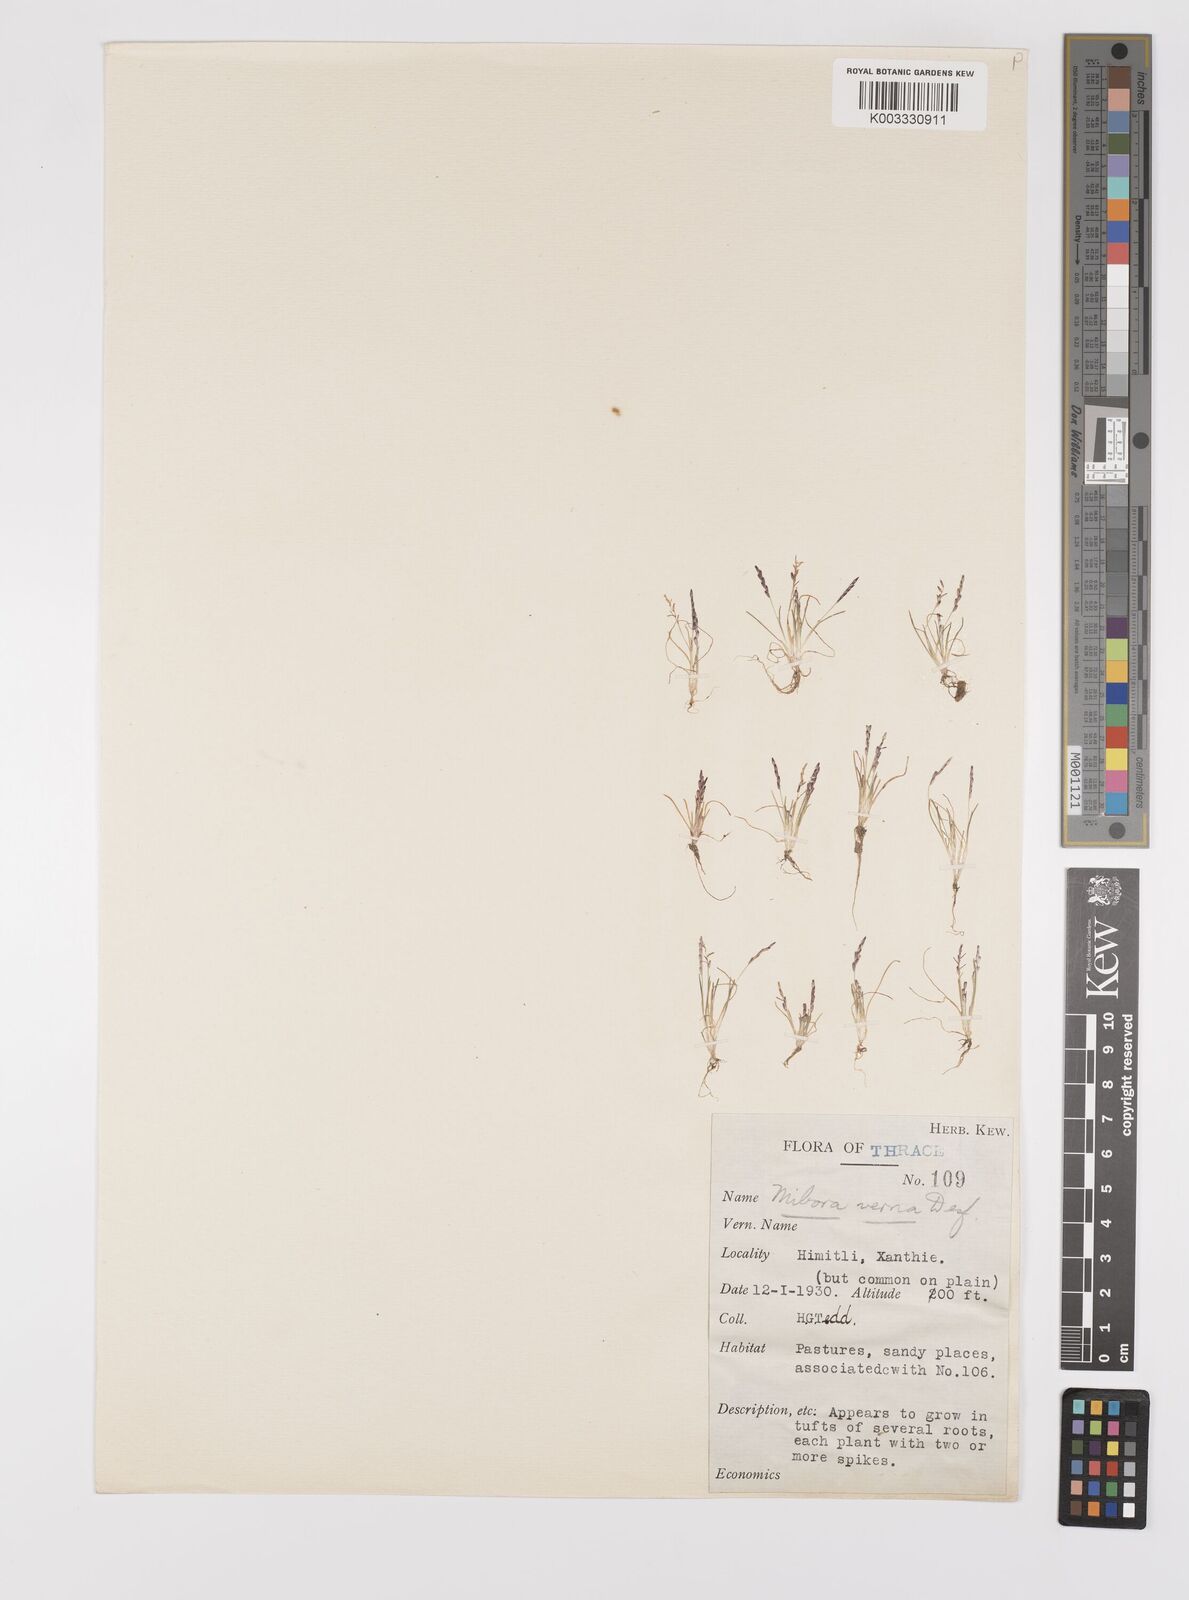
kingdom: Plantae
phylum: Tracheophyta
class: Liliopsida
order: Poales
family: Poaceae
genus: Mibora
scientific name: Mibora minima
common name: Early sand-grass
